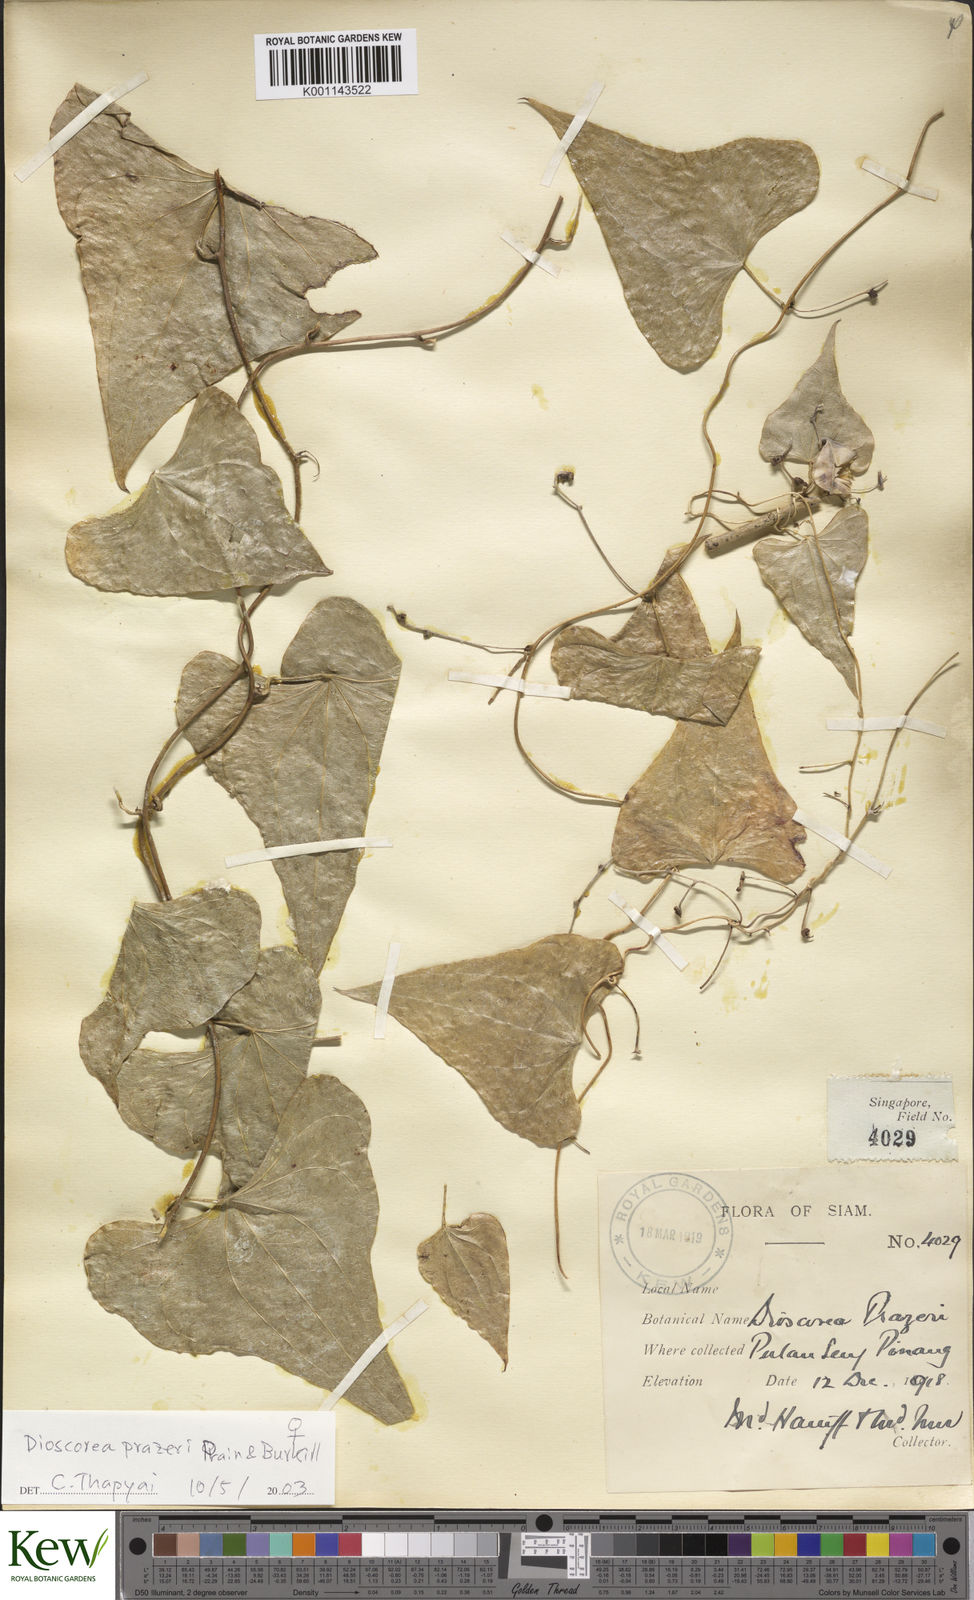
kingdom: Plantae
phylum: Tracheophyta
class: Liliopsida
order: Dioscoreales
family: Dioscoreaceae
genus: Dioscorea
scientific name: Dioscorea prazeri
